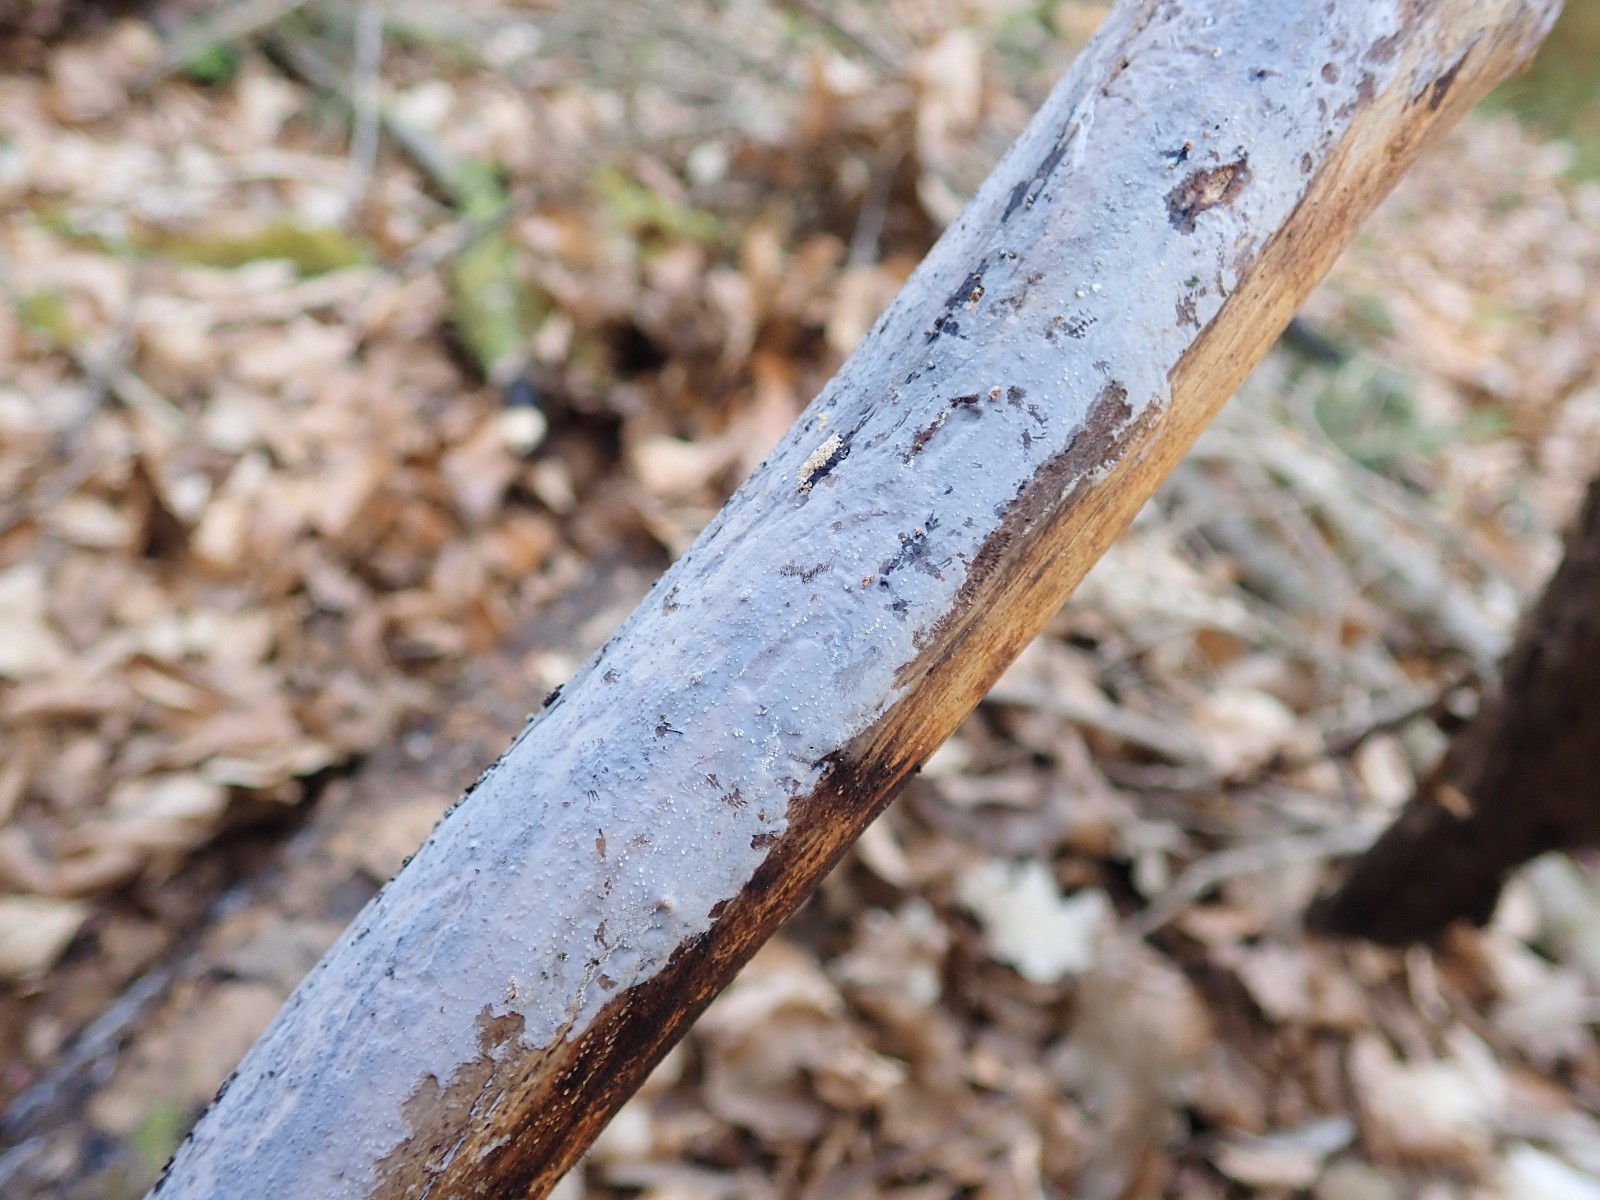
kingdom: Fungi
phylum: Basidiomycota
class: Tremellomycetes
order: Tremellales
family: Exidiaceae
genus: Exidiopsis
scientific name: Exidiopsis effusa
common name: smuk bævrehinde
